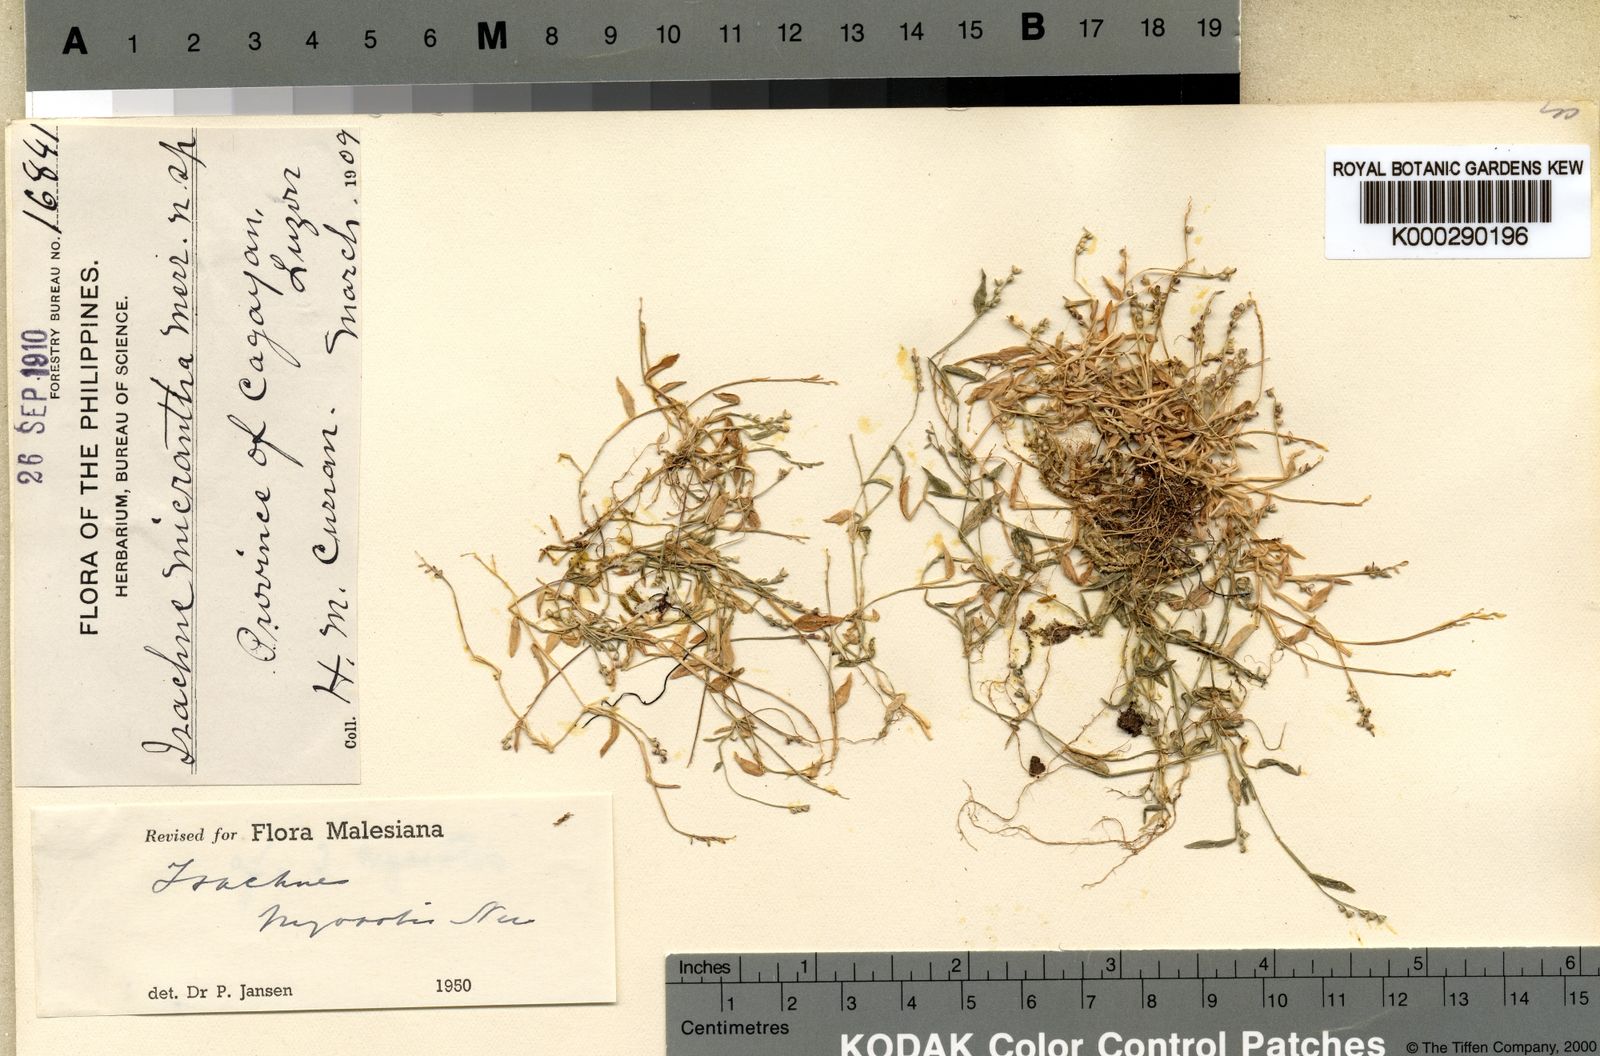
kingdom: Plantae
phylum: Tracheophyta
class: Liliopsida
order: Poales
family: Poaceae
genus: Isachne
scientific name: Isachne myosotis
